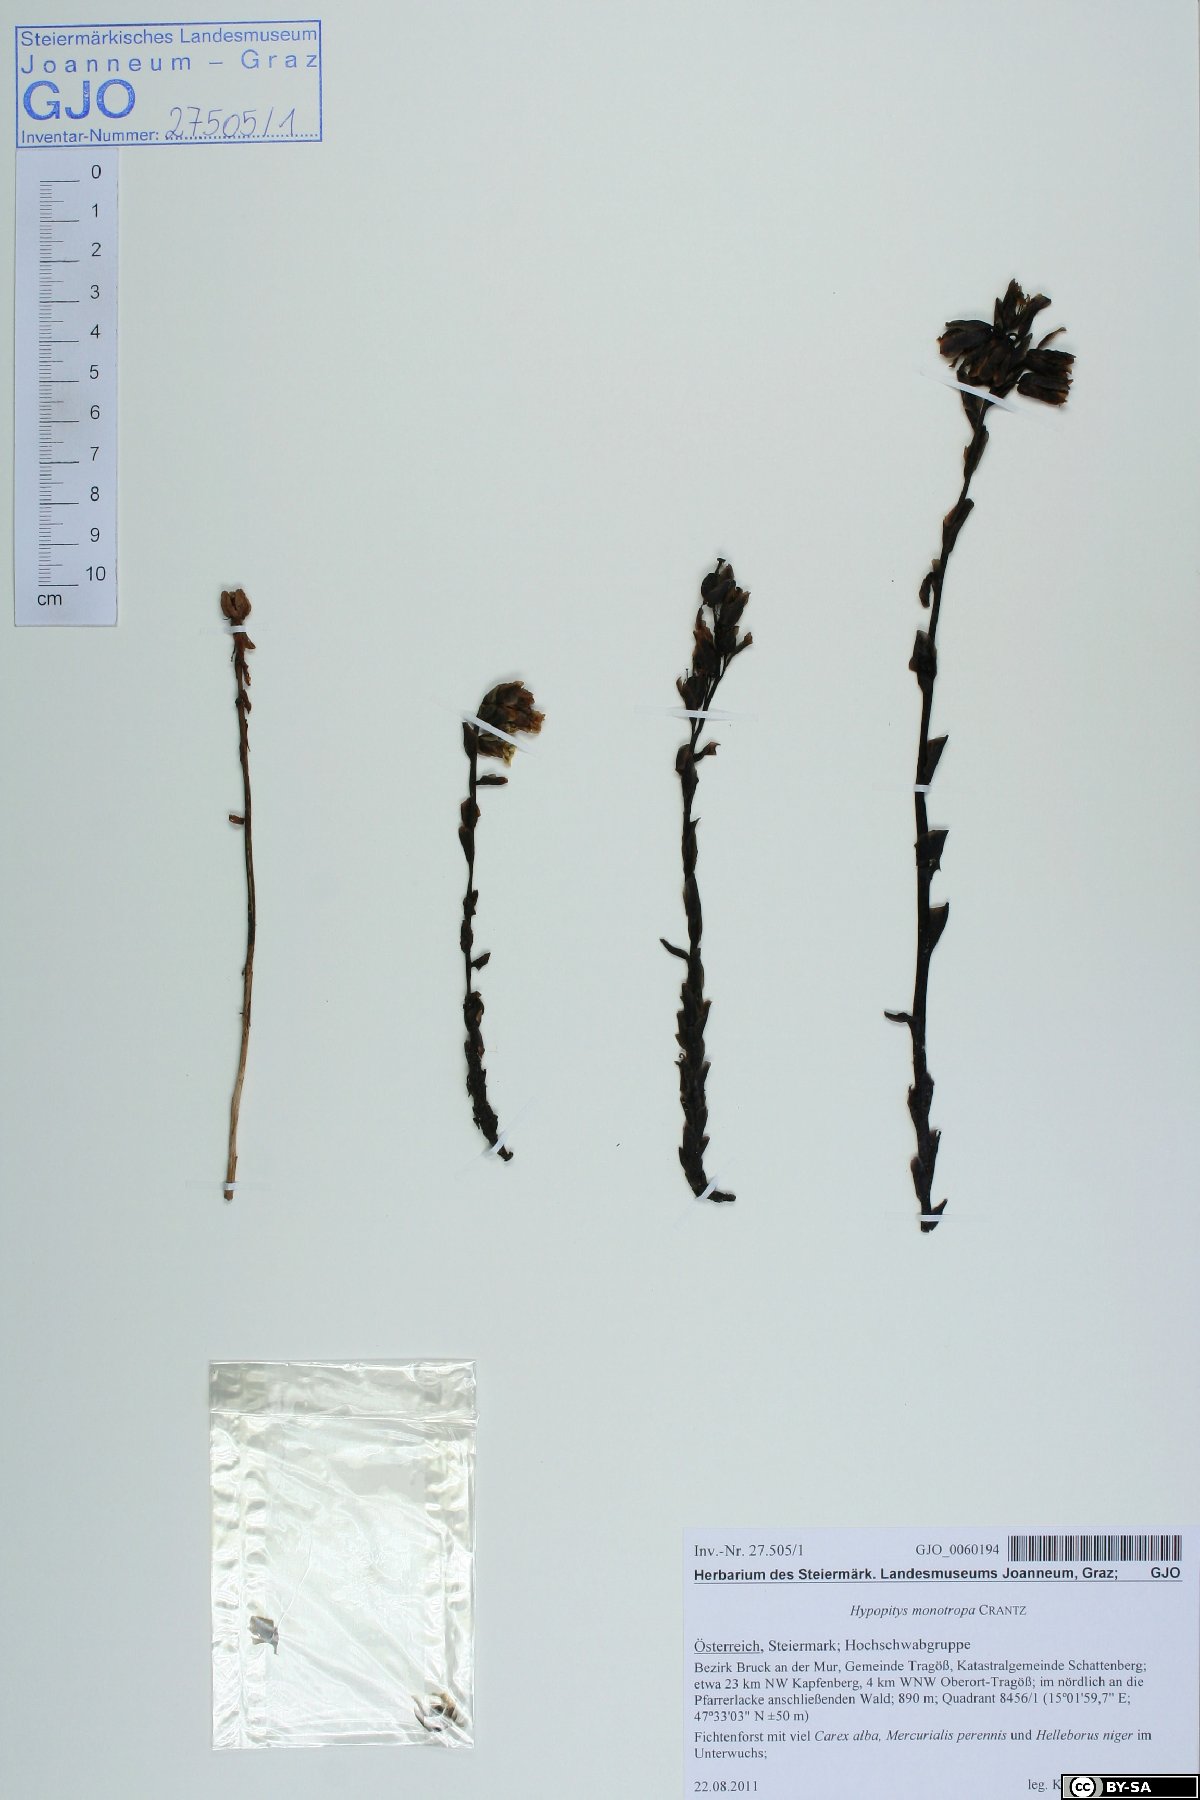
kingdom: Plantae
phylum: Tracheophyta
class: Magnoliopsida
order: Ericales
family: Ericaceae
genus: Hypopitys
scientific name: Hypopitys monotropa
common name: Yellow bird's-nest
